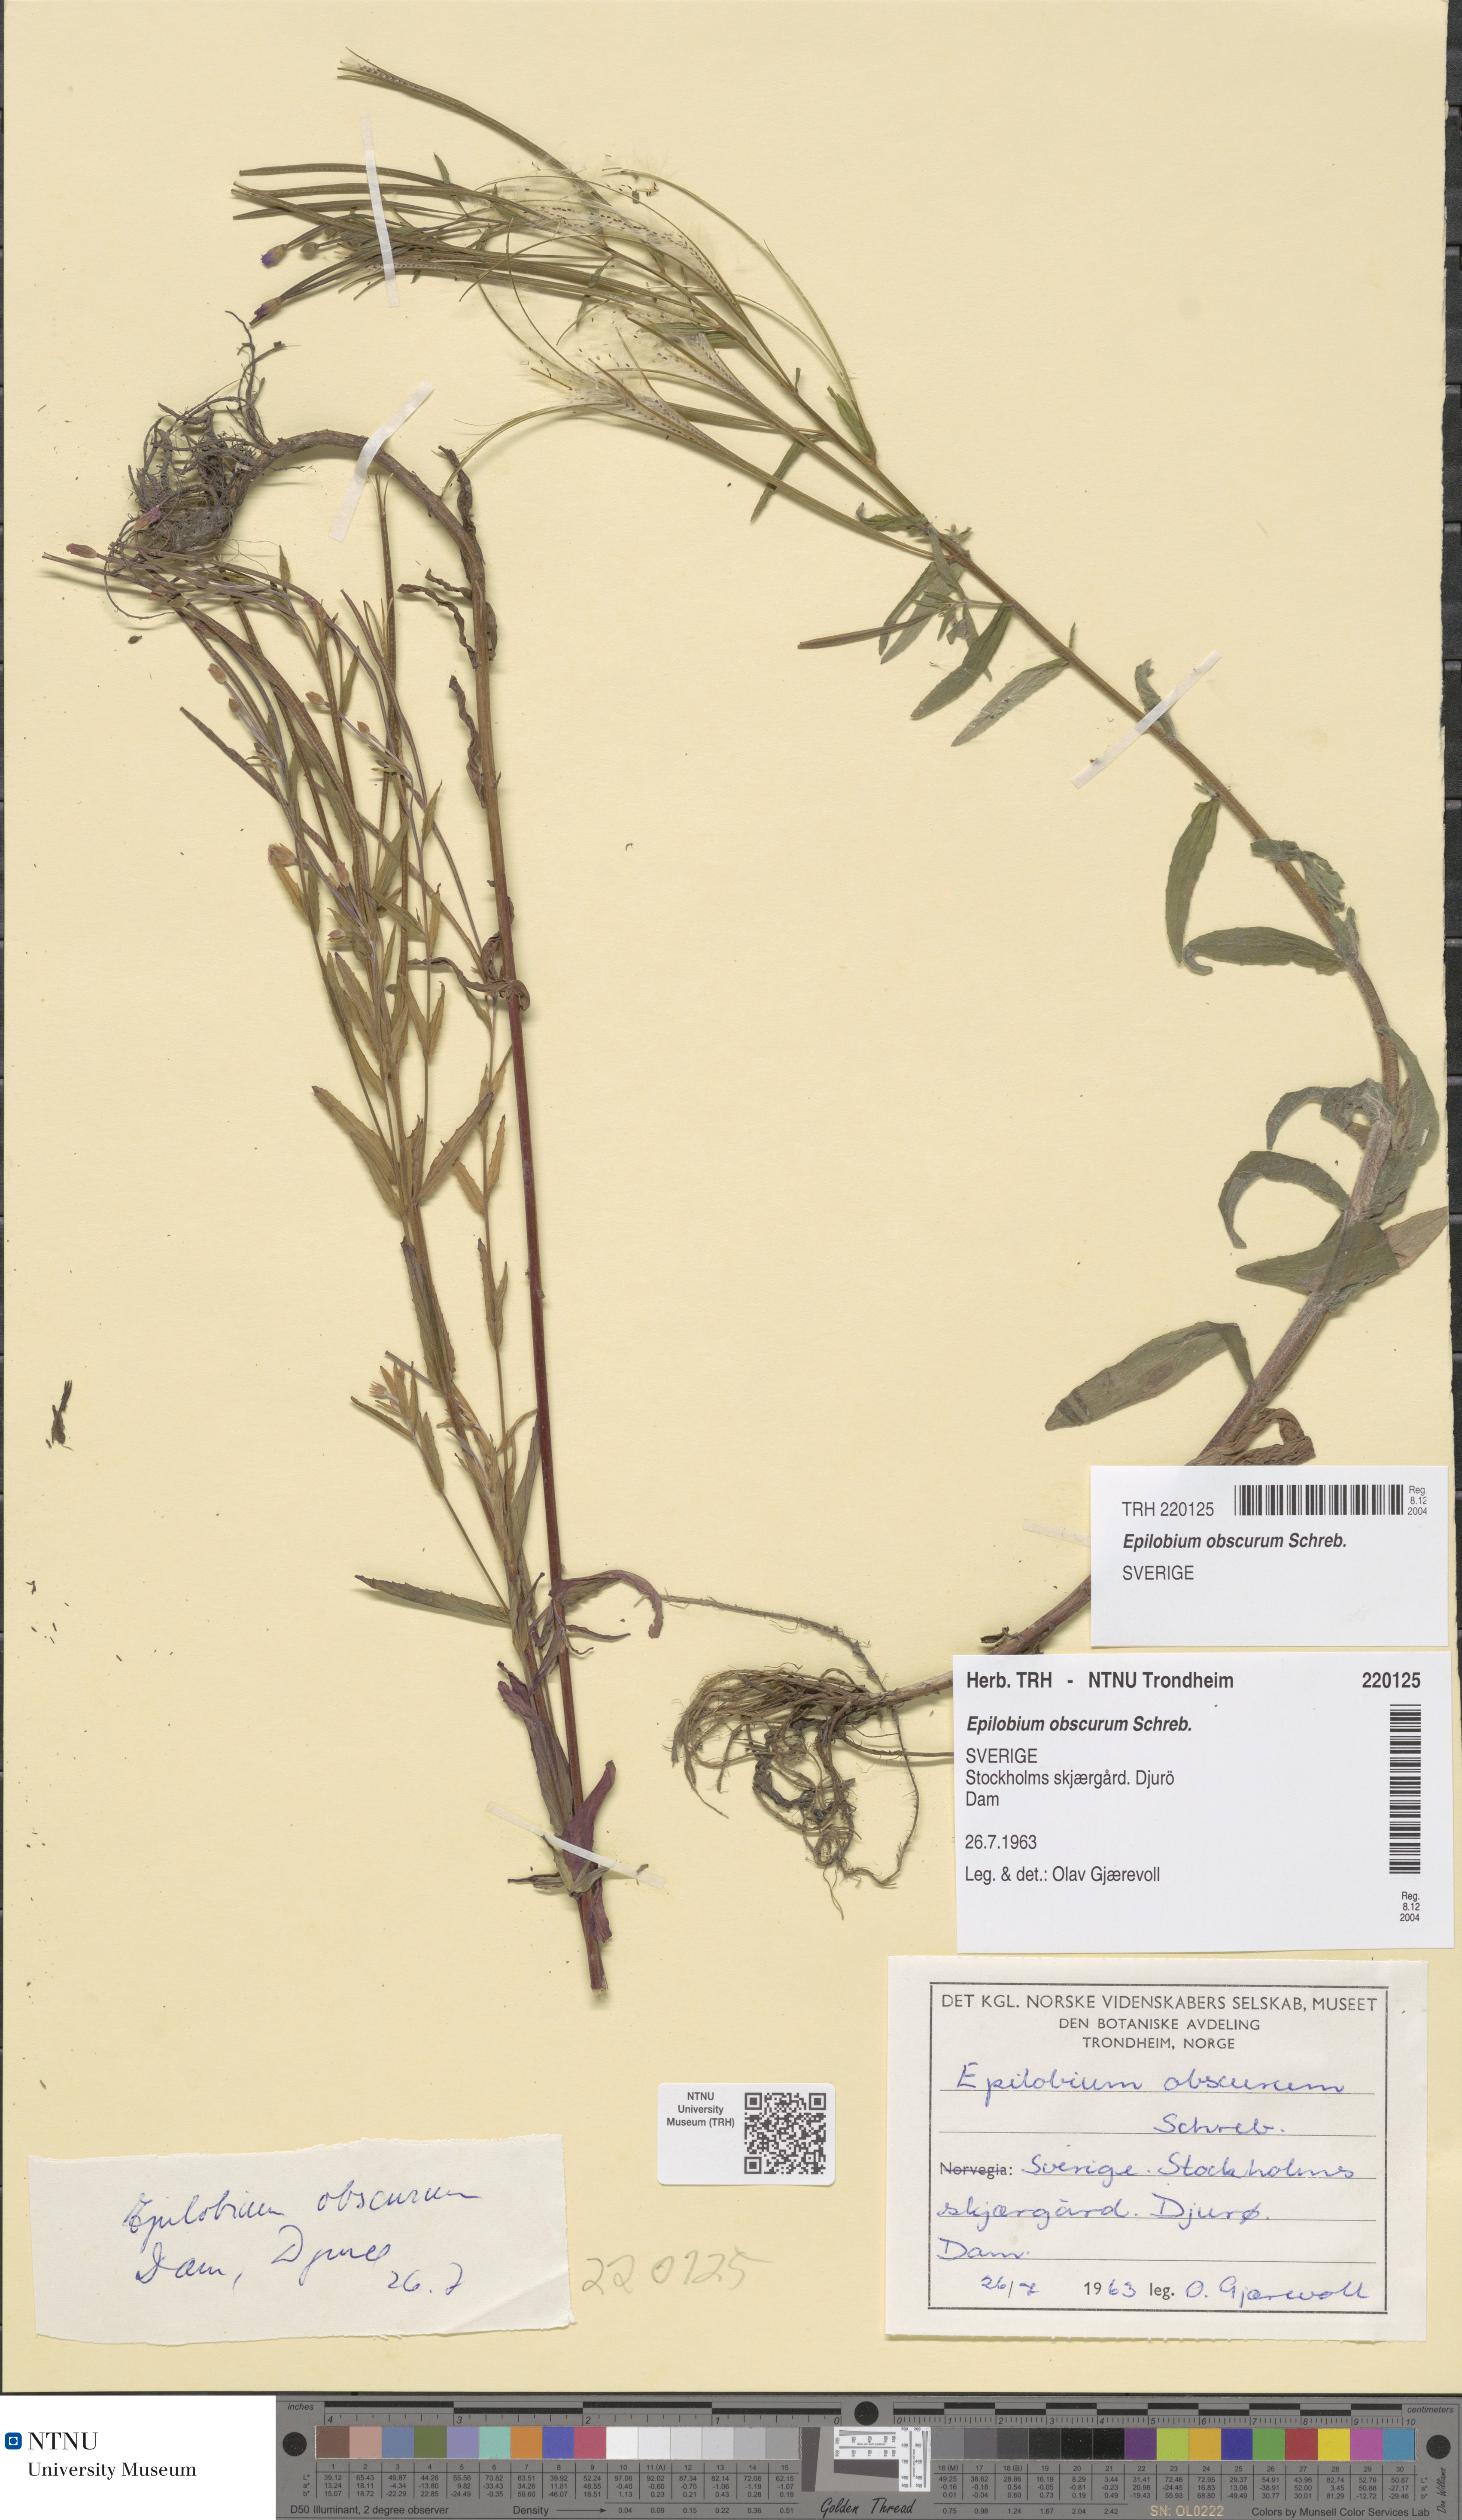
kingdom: Plantae
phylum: Tracheophyta
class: Magnoliopsida
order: Myrtales
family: Onagraceae
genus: Epilobium
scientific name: Epilobium obscurum
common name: Short-fruited willowherb
